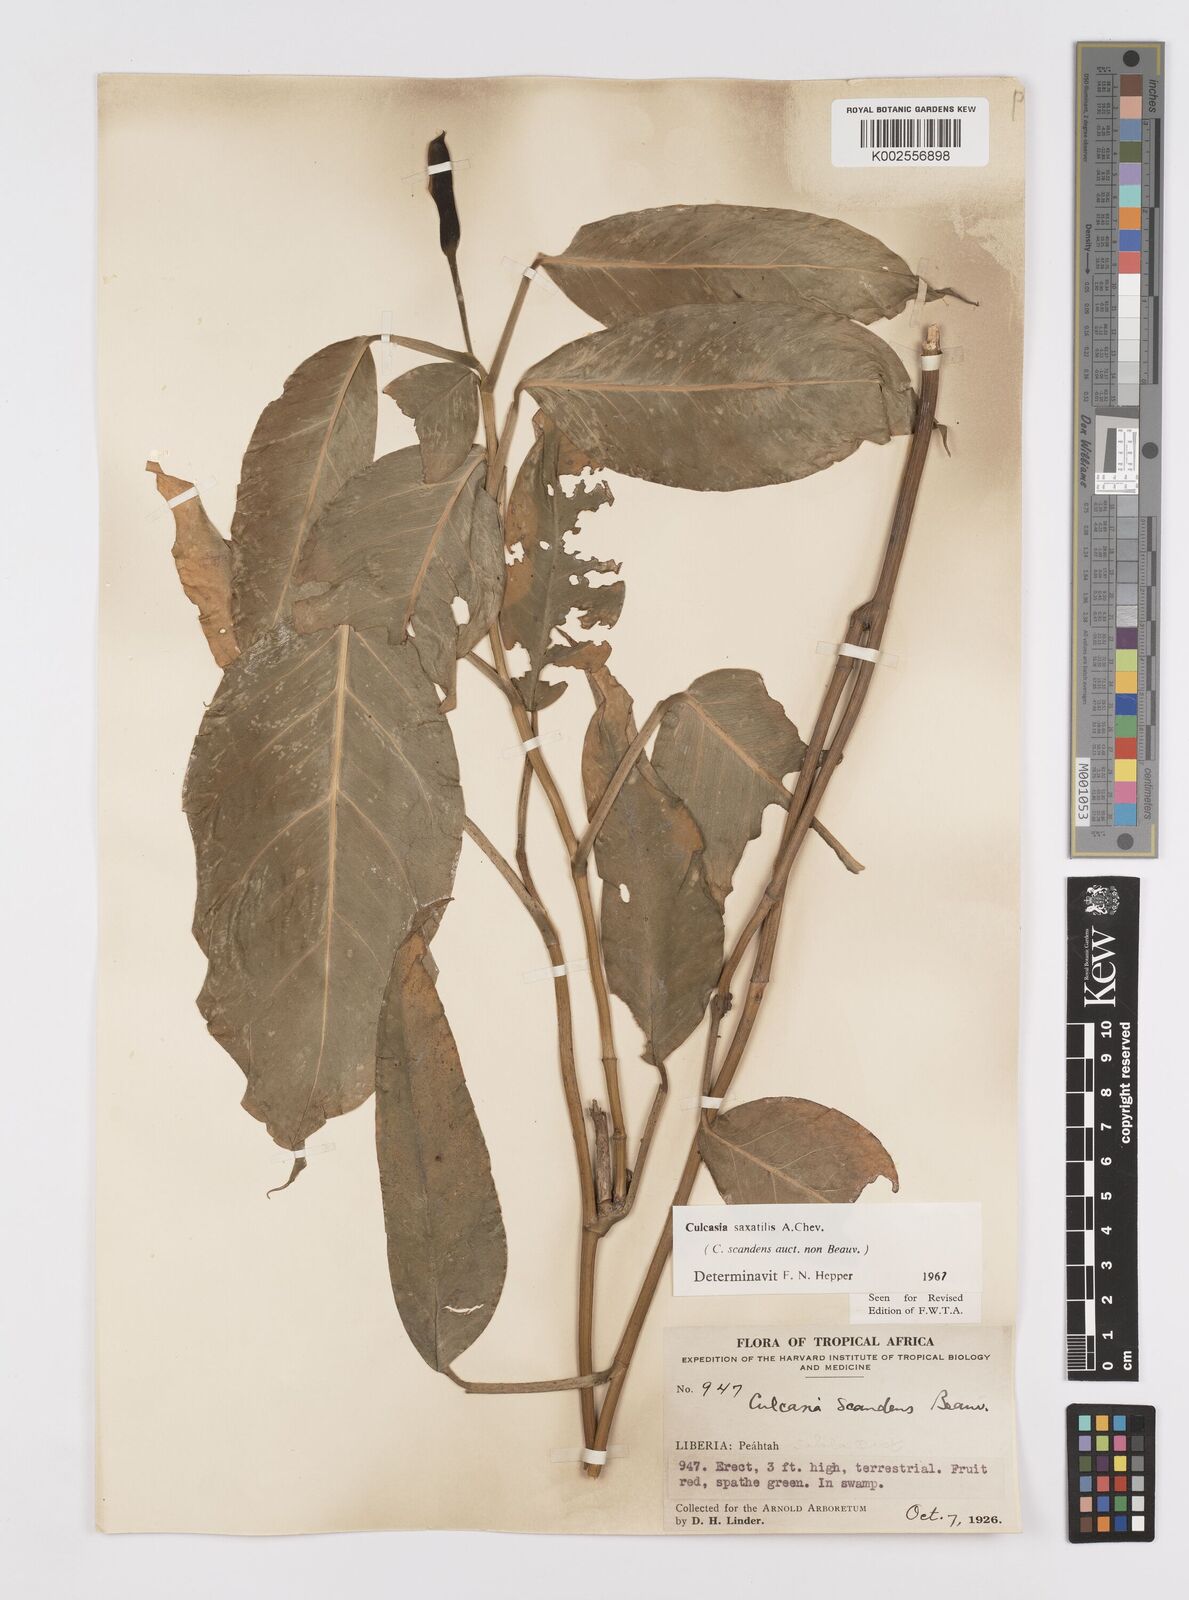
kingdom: Plantae
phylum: Tracheophyta
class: Liliopsida
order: Alismatales
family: Araceae
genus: Culcasia
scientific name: Culcasia scandens
